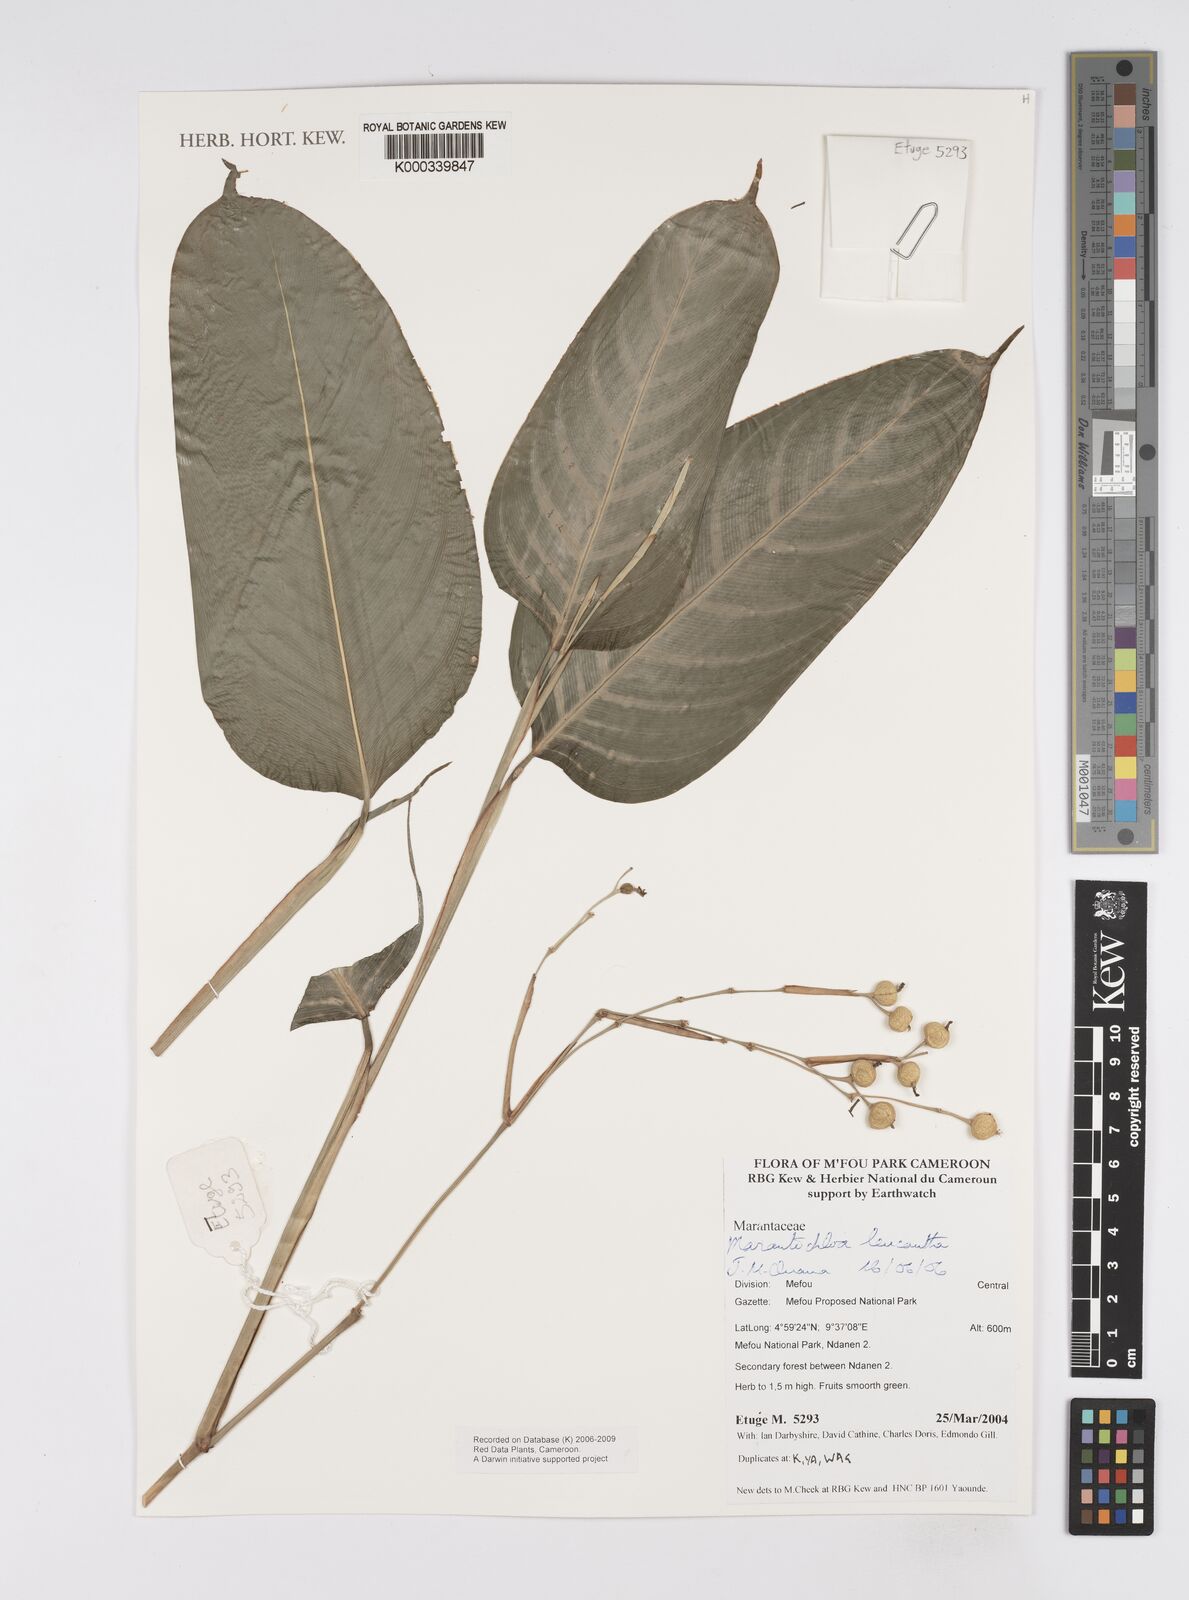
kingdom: Plantae
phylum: Tracheophyta
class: Liliopsida
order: Zingiberales
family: Marantaceae
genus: Marantochloa
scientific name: Marantochloa leucantha
